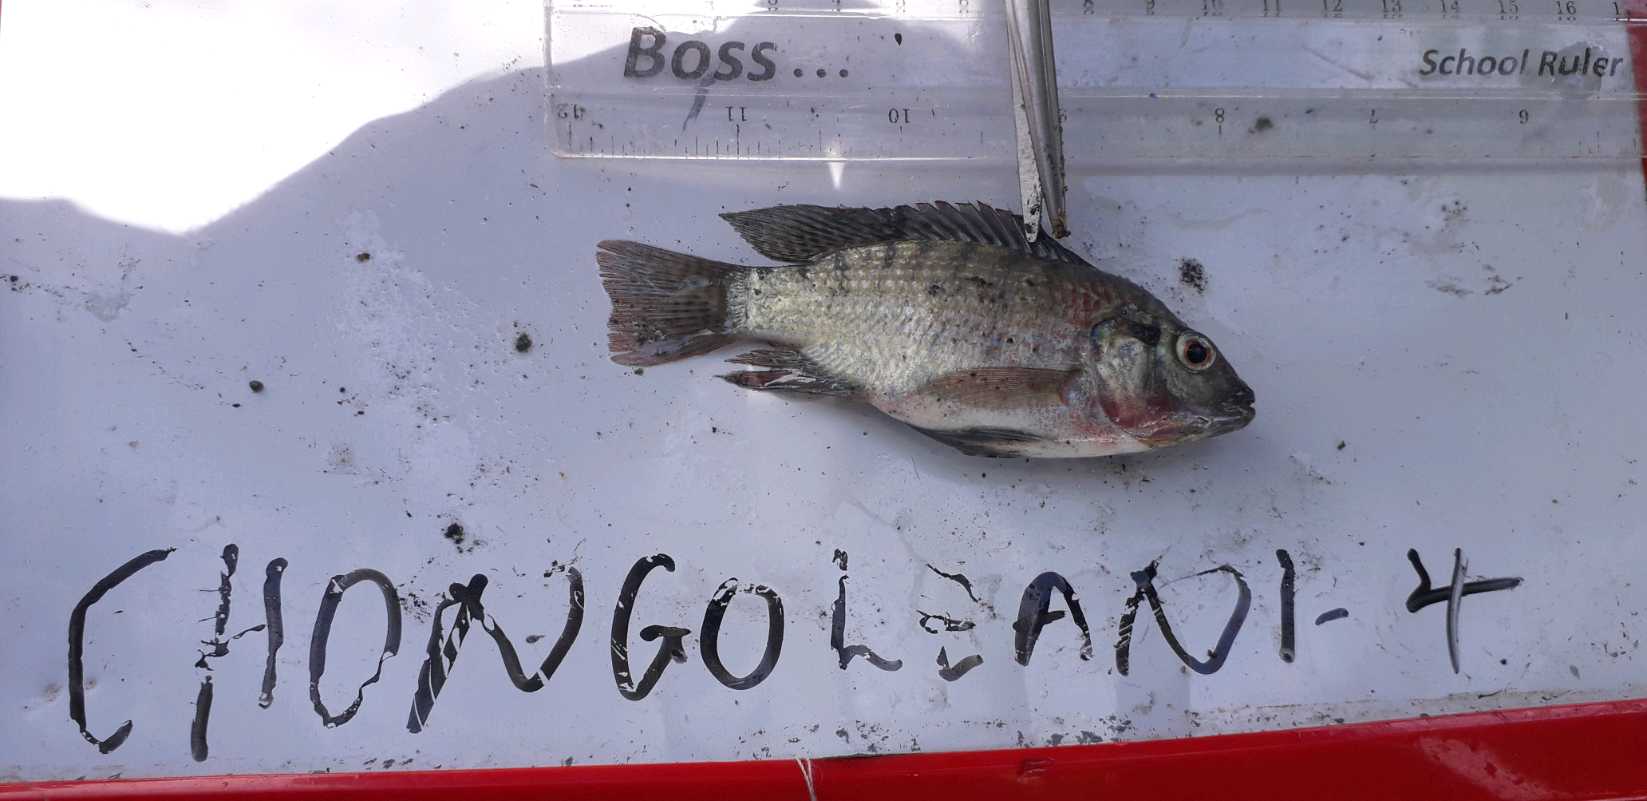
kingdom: Animalia
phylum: Chordata
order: Perciformes
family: Cichlidae
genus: Oreochromis
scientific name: Oreochromis urolepis
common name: Wami tilapia
